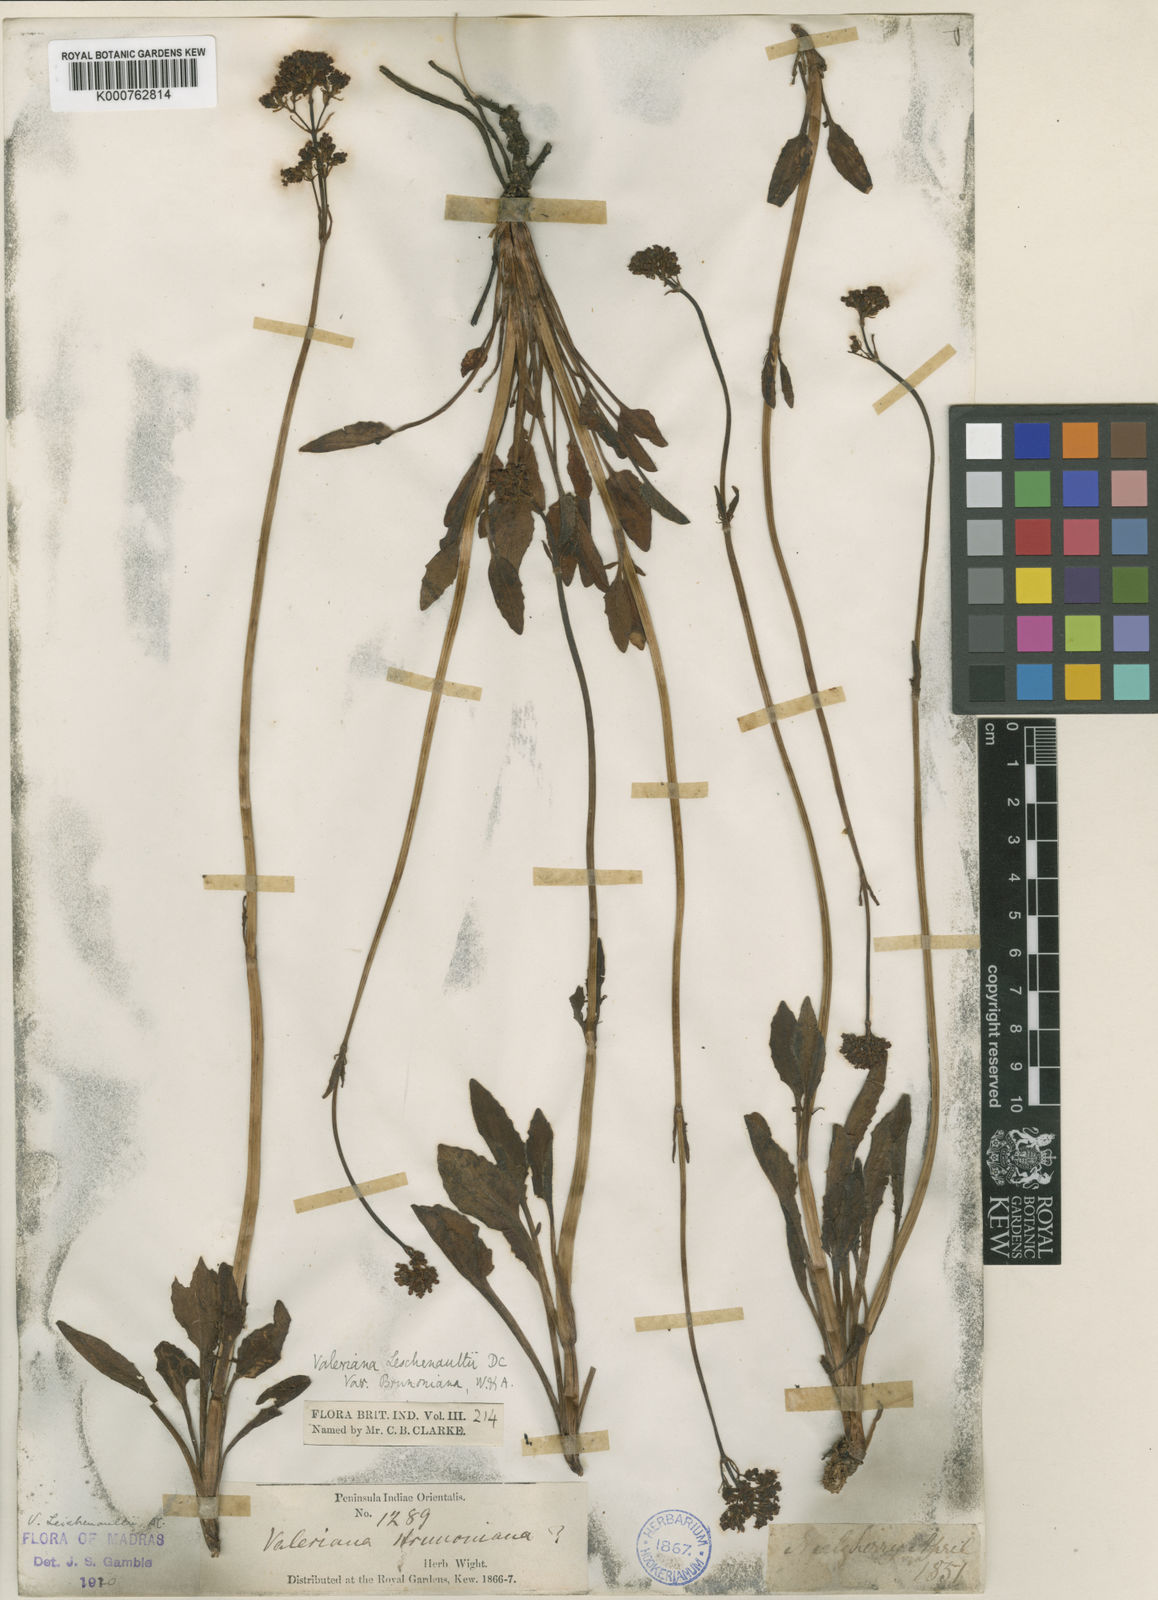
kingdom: Plantae
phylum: Tracheophyta
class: Magnoliopsida
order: Dipsacales
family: Caprifoliaceae
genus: Valeriana
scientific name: Valeriana leschenaultii
